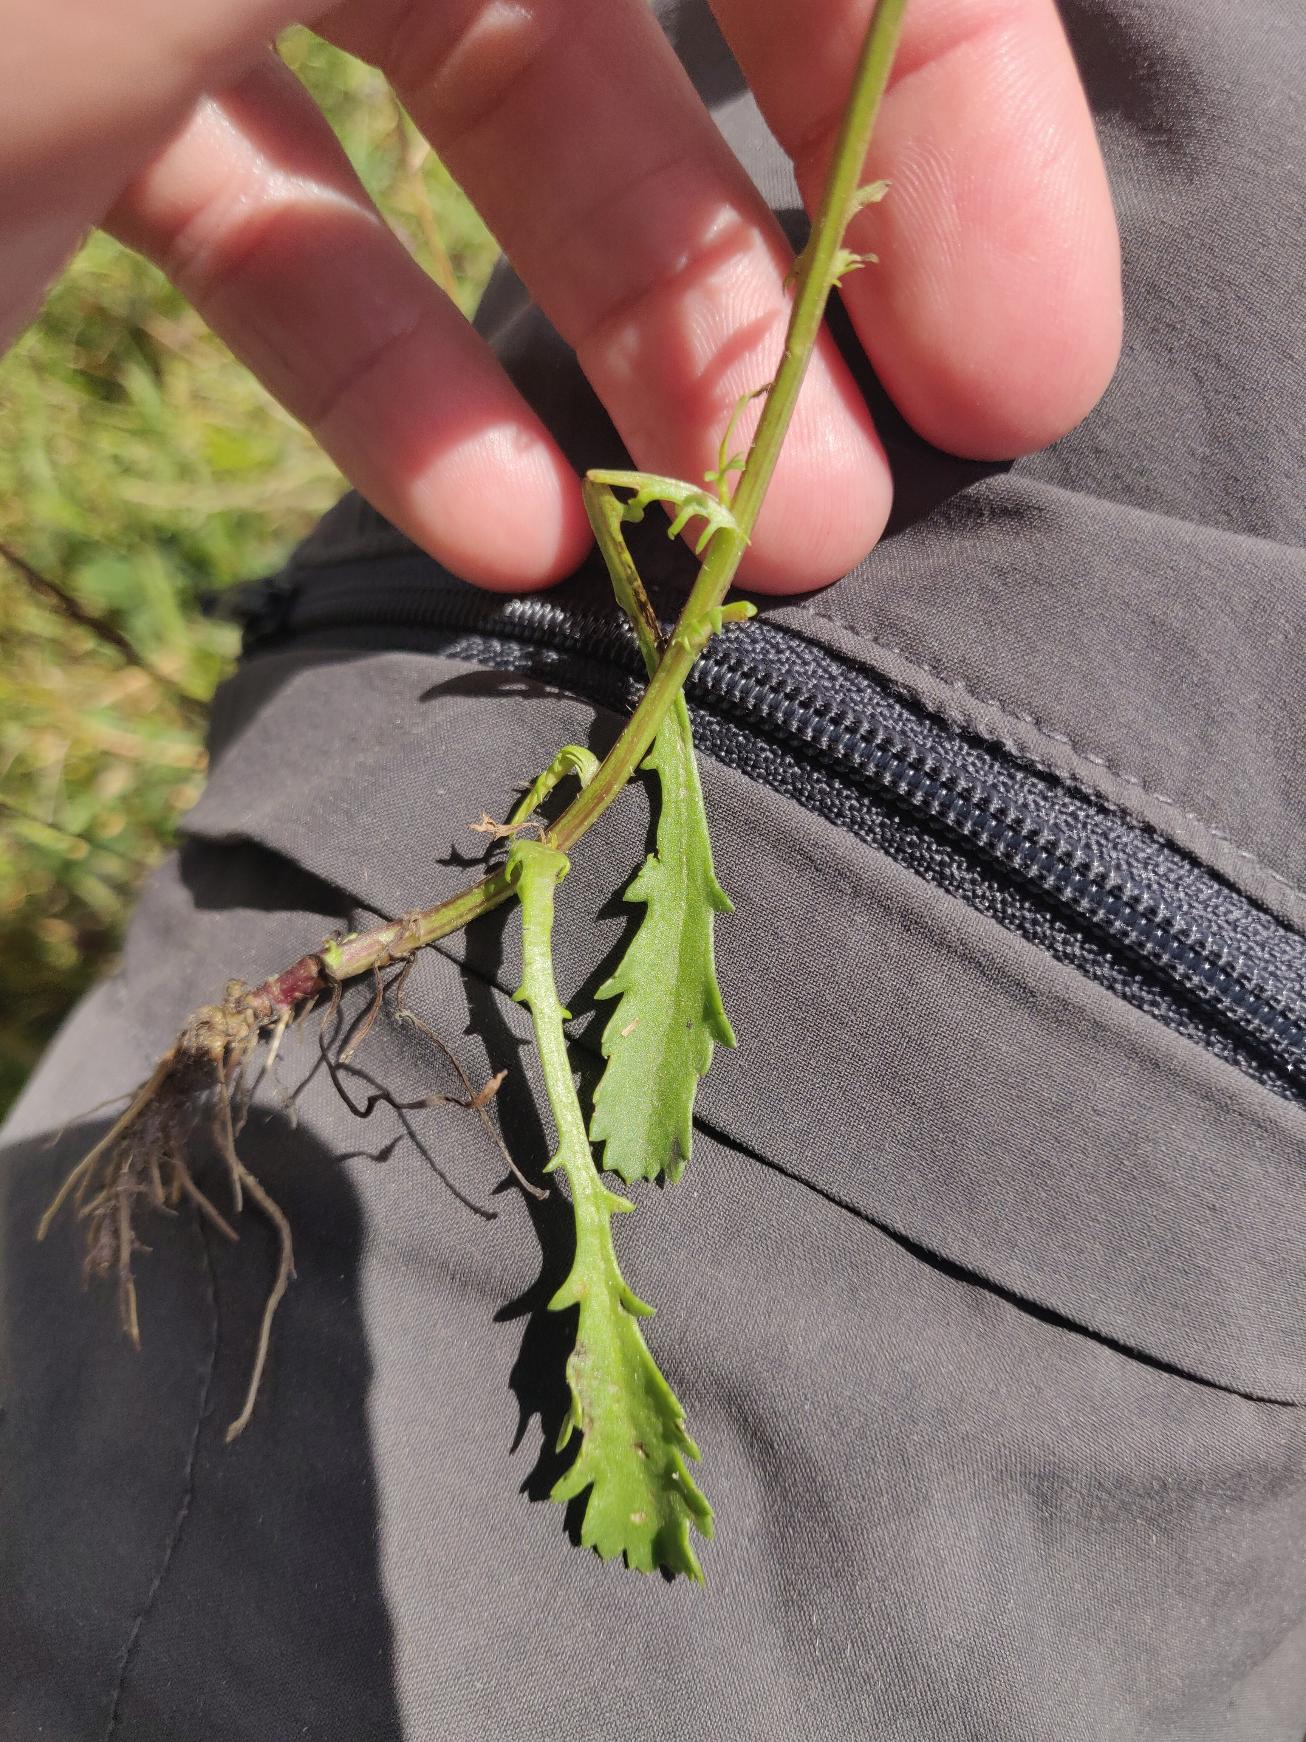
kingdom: Plantae
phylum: Tracheophyta
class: Magnoliopsida
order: Asterales
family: Asteraceae
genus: Leucanthemum
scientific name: Leucanthemum vulgare
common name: Hvid okseøje
